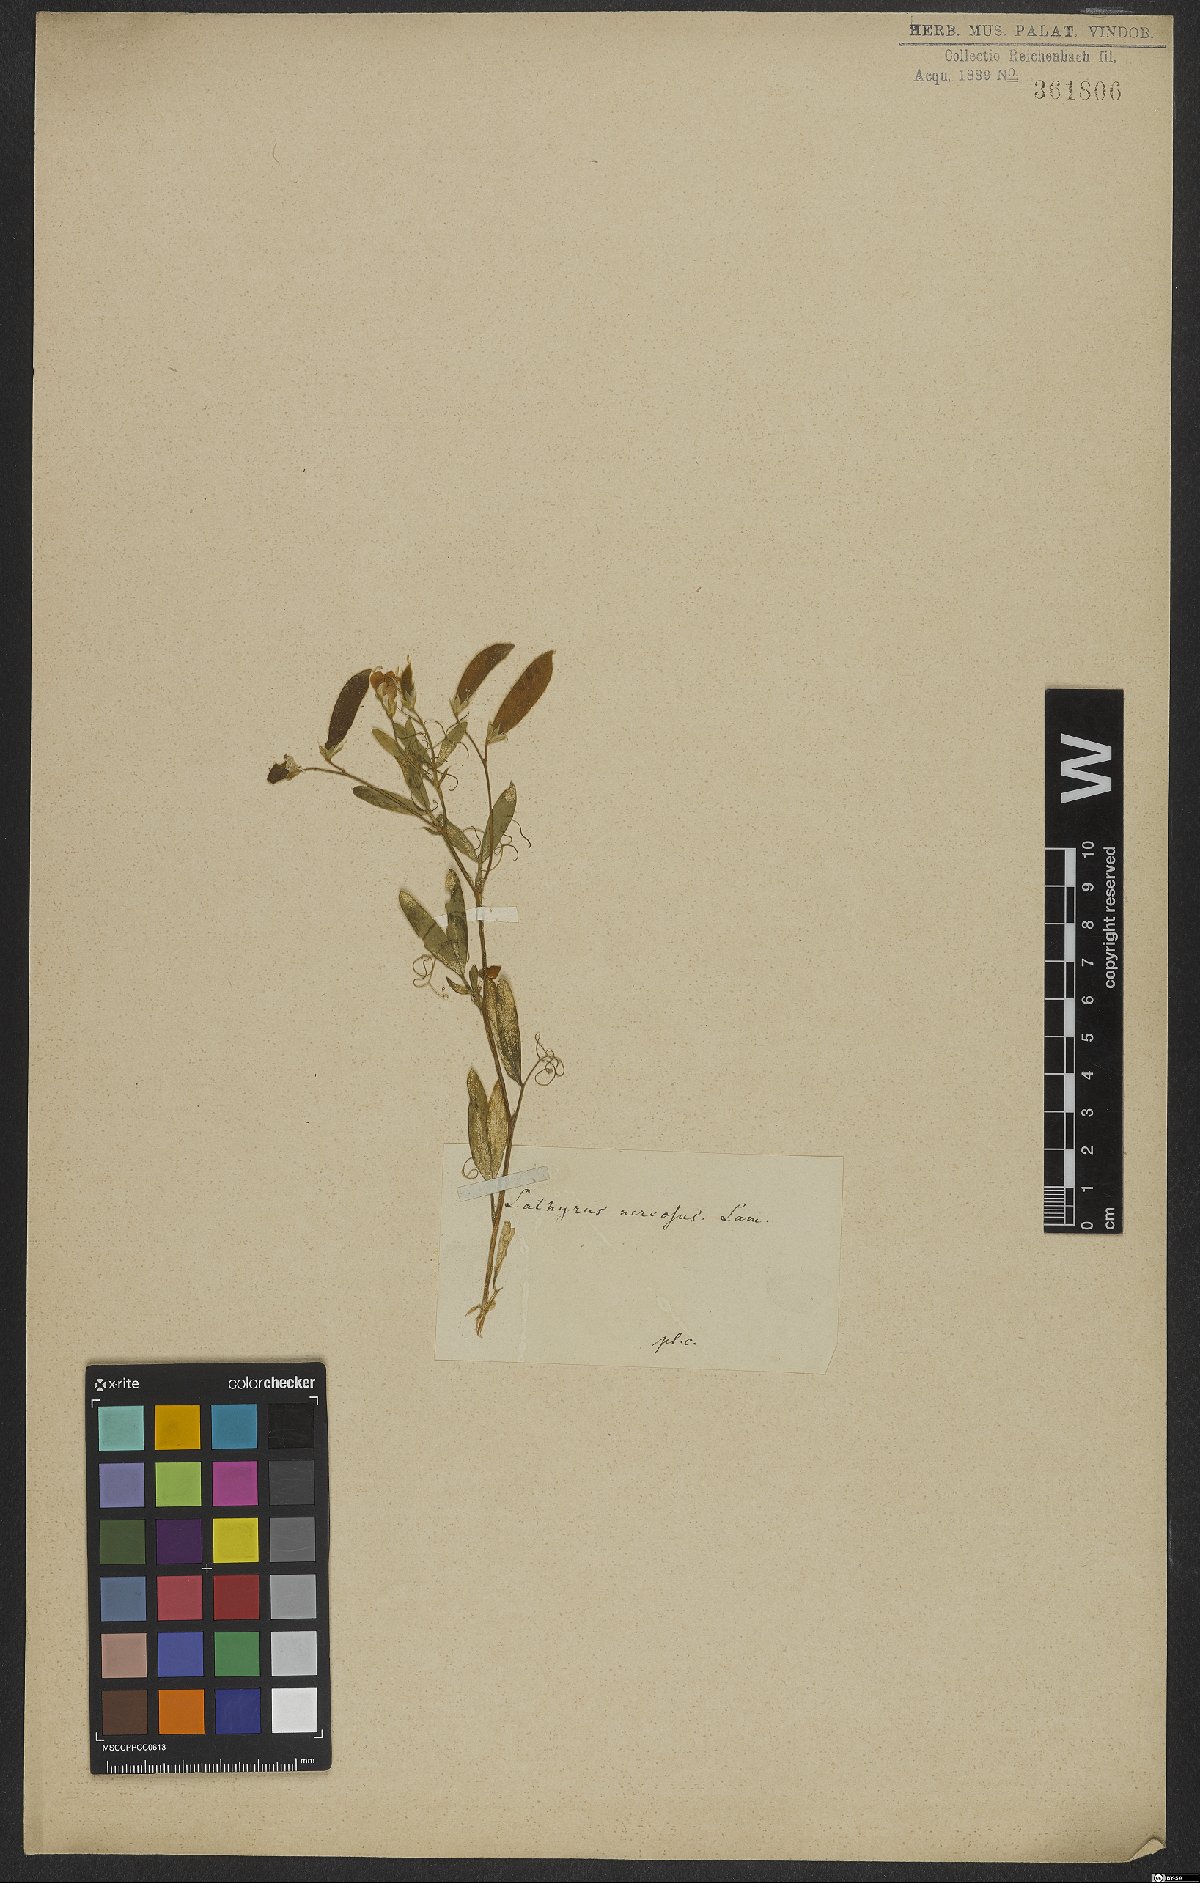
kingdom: Plantae
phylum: Tracheophyta
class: Magnoliopsida
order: Fabales
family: Fabaceae
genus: Lathyrus
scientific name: Lathyrus nervosus
